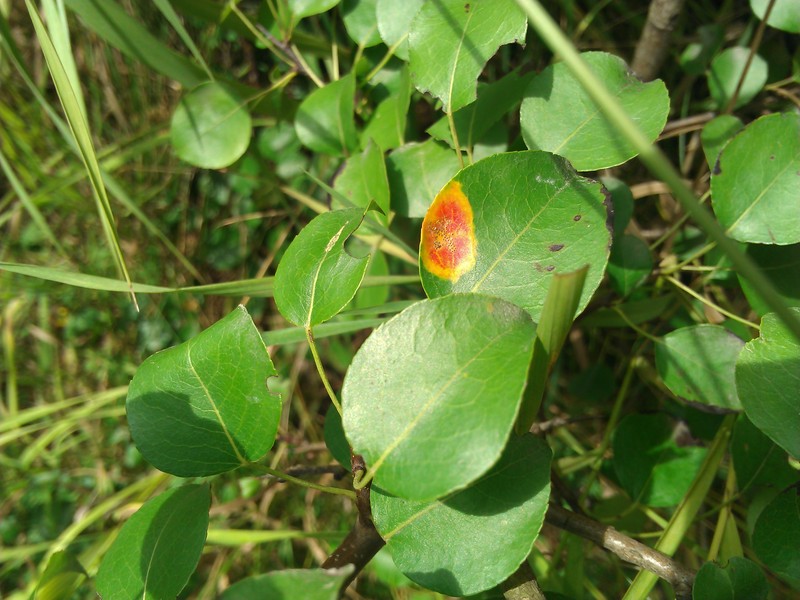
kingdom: Fungi
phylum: Basidiomycota
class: Pucciniomycetes
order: Pucciniales
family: Gymnosporangiaceae
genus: Gymnosporangium
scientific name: Gymnosporangium sabinae
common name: Pear trellis rust fungus
